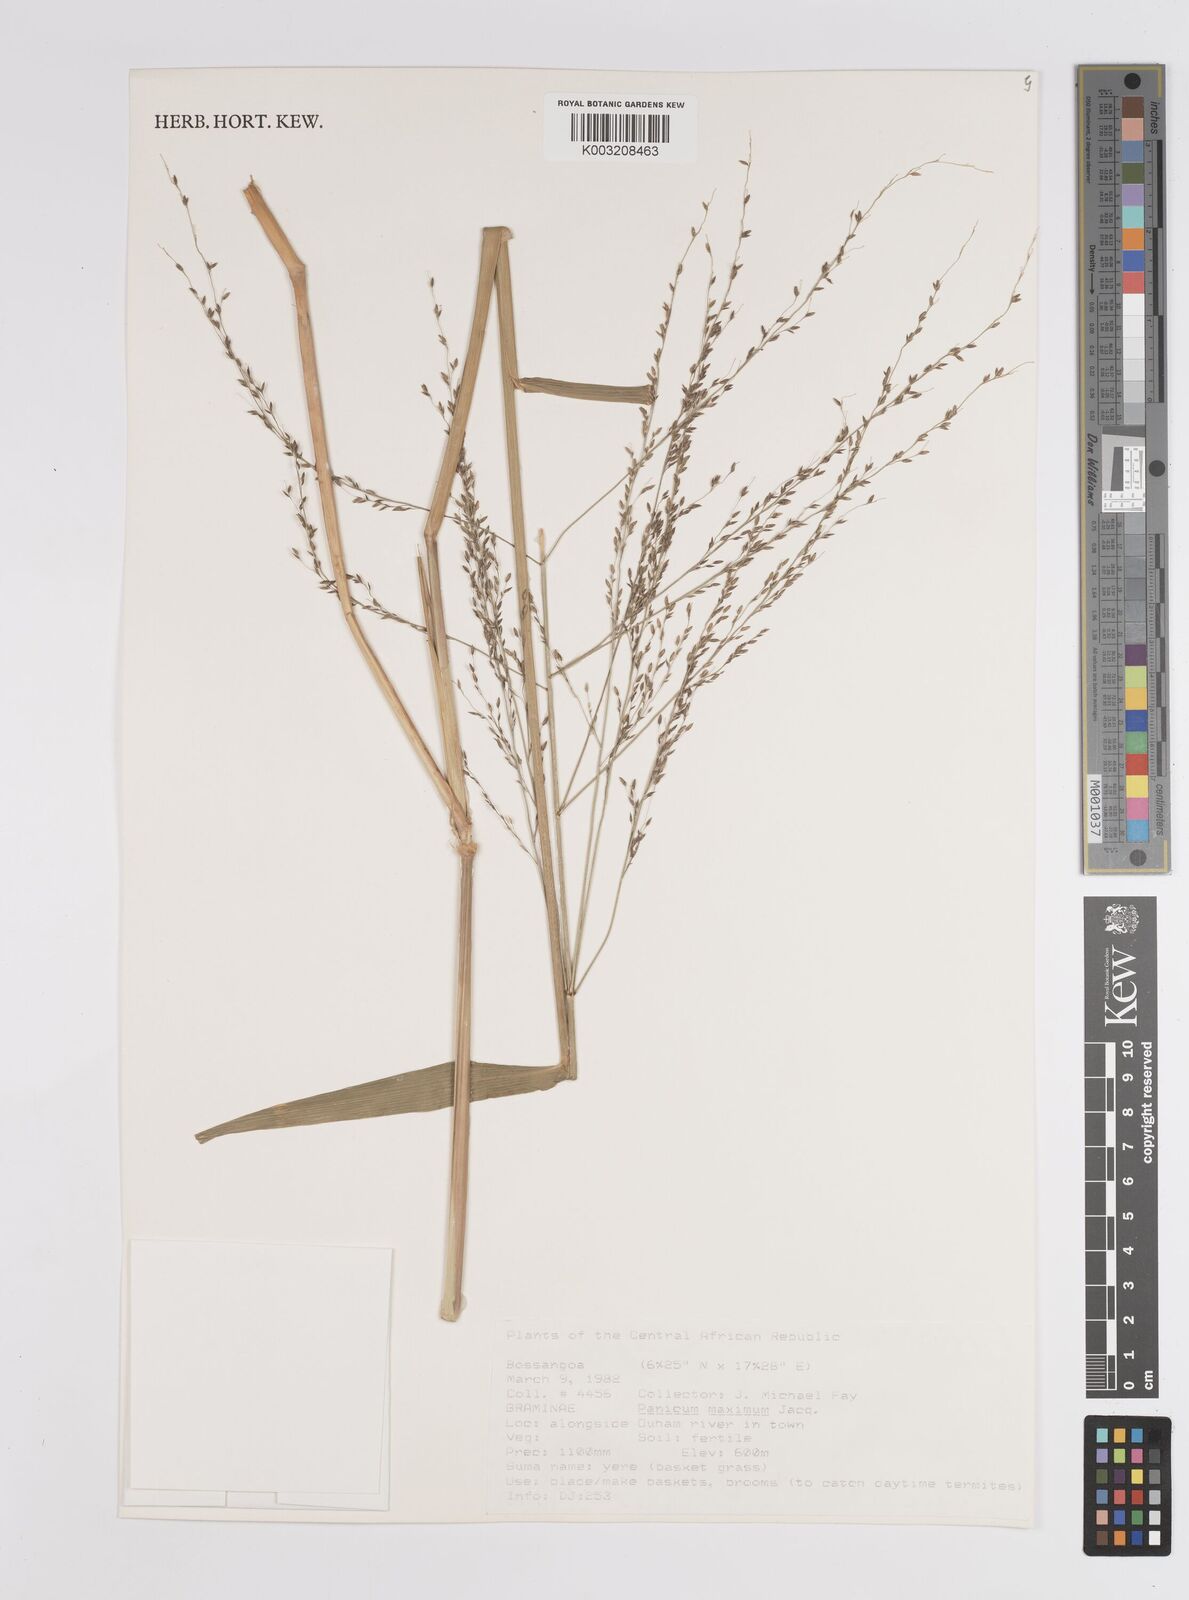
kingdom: Plantae
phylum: Tracheophyta
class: Liliopsida
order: Poales
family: Poaceae
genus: Megathyrsus
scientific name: Megathyrsus maximus
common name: Guineagrass
